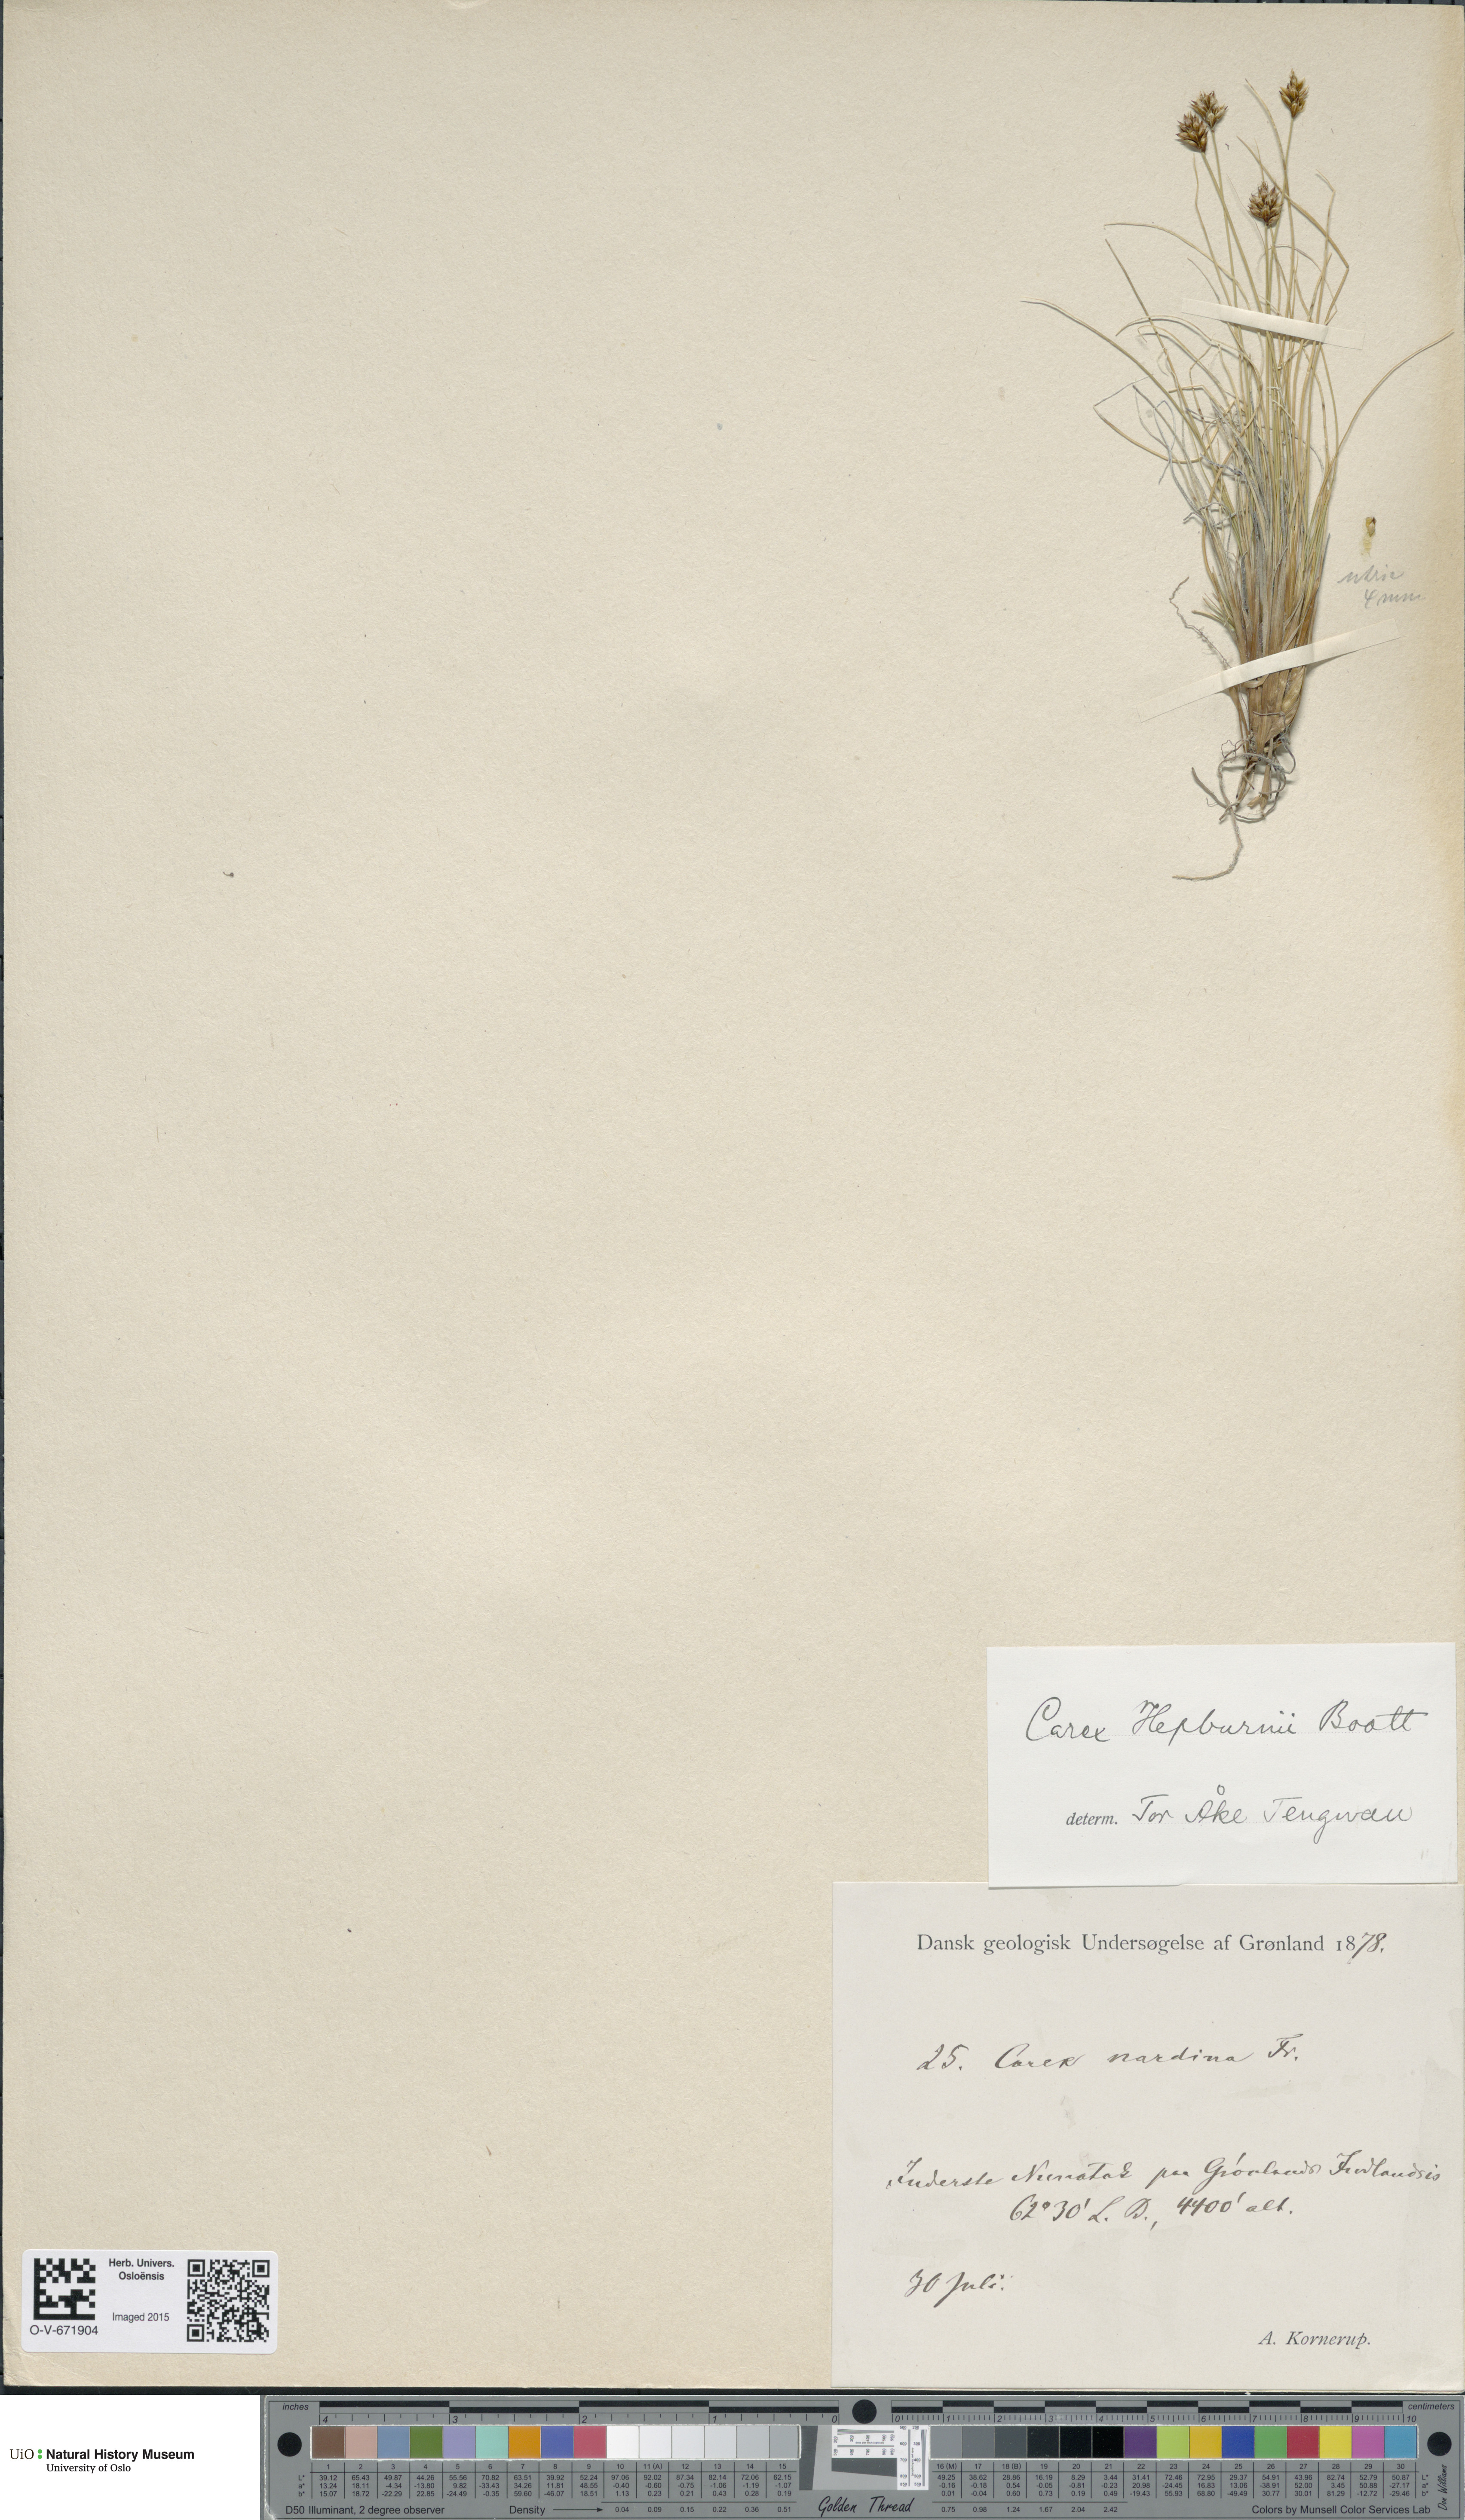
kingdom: Plantae
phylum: Tracheophyta
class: Liliopsida
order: Poales
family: Cyperaceae
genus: Carex
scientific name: Carex nardina
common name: Nard sedge
